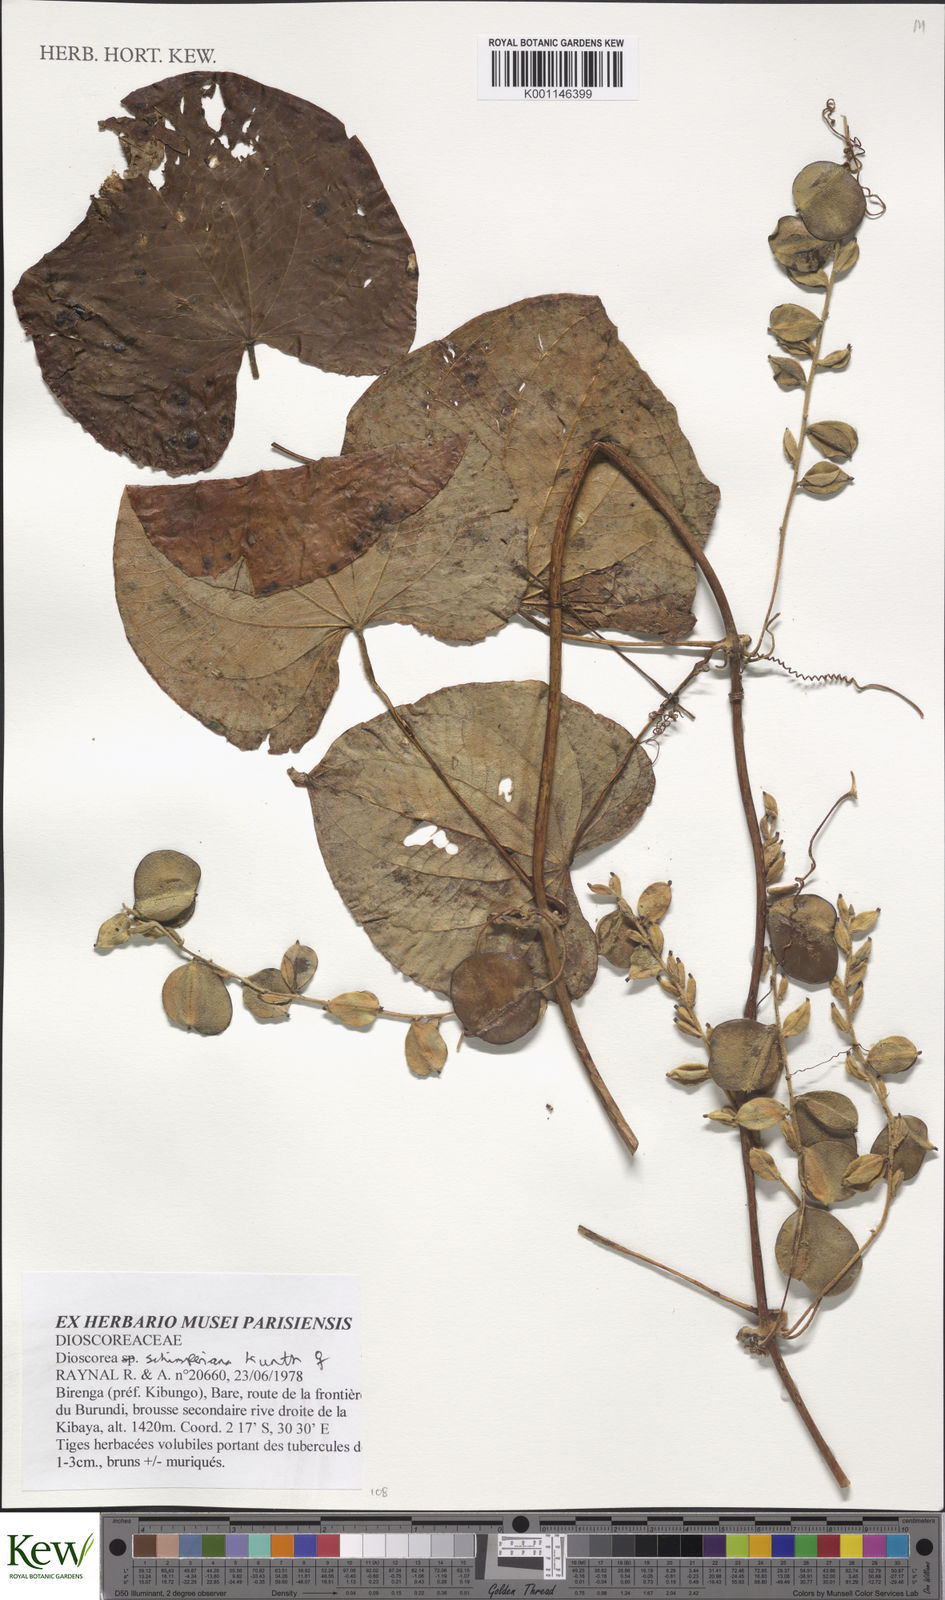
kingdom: Plantae
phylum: Tracheophyta
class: Liliopsida
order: Dioscoreales
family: Dioscoreaceae
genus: Dioscorea
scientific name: Dioscorea schimperiana
